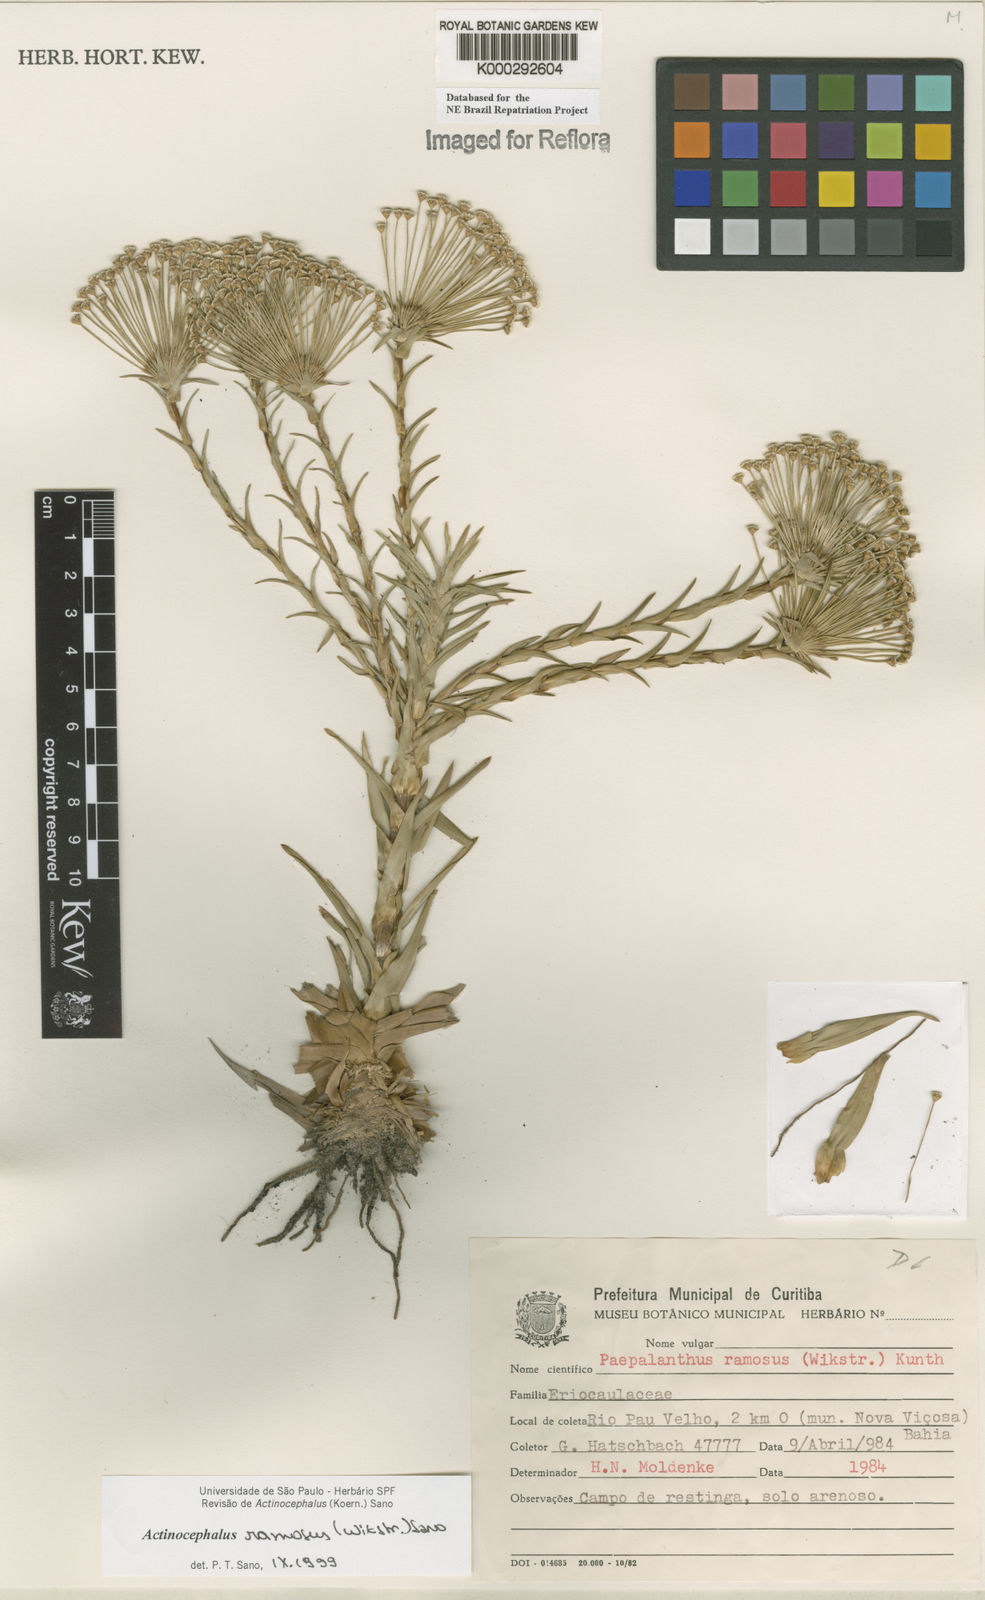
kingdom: Plantae
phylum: Tracheophyta
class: Liliopsida
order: Poales
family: Eriocaulaceae
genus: Paepalanthus
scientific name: Paepalanthus ramosus
